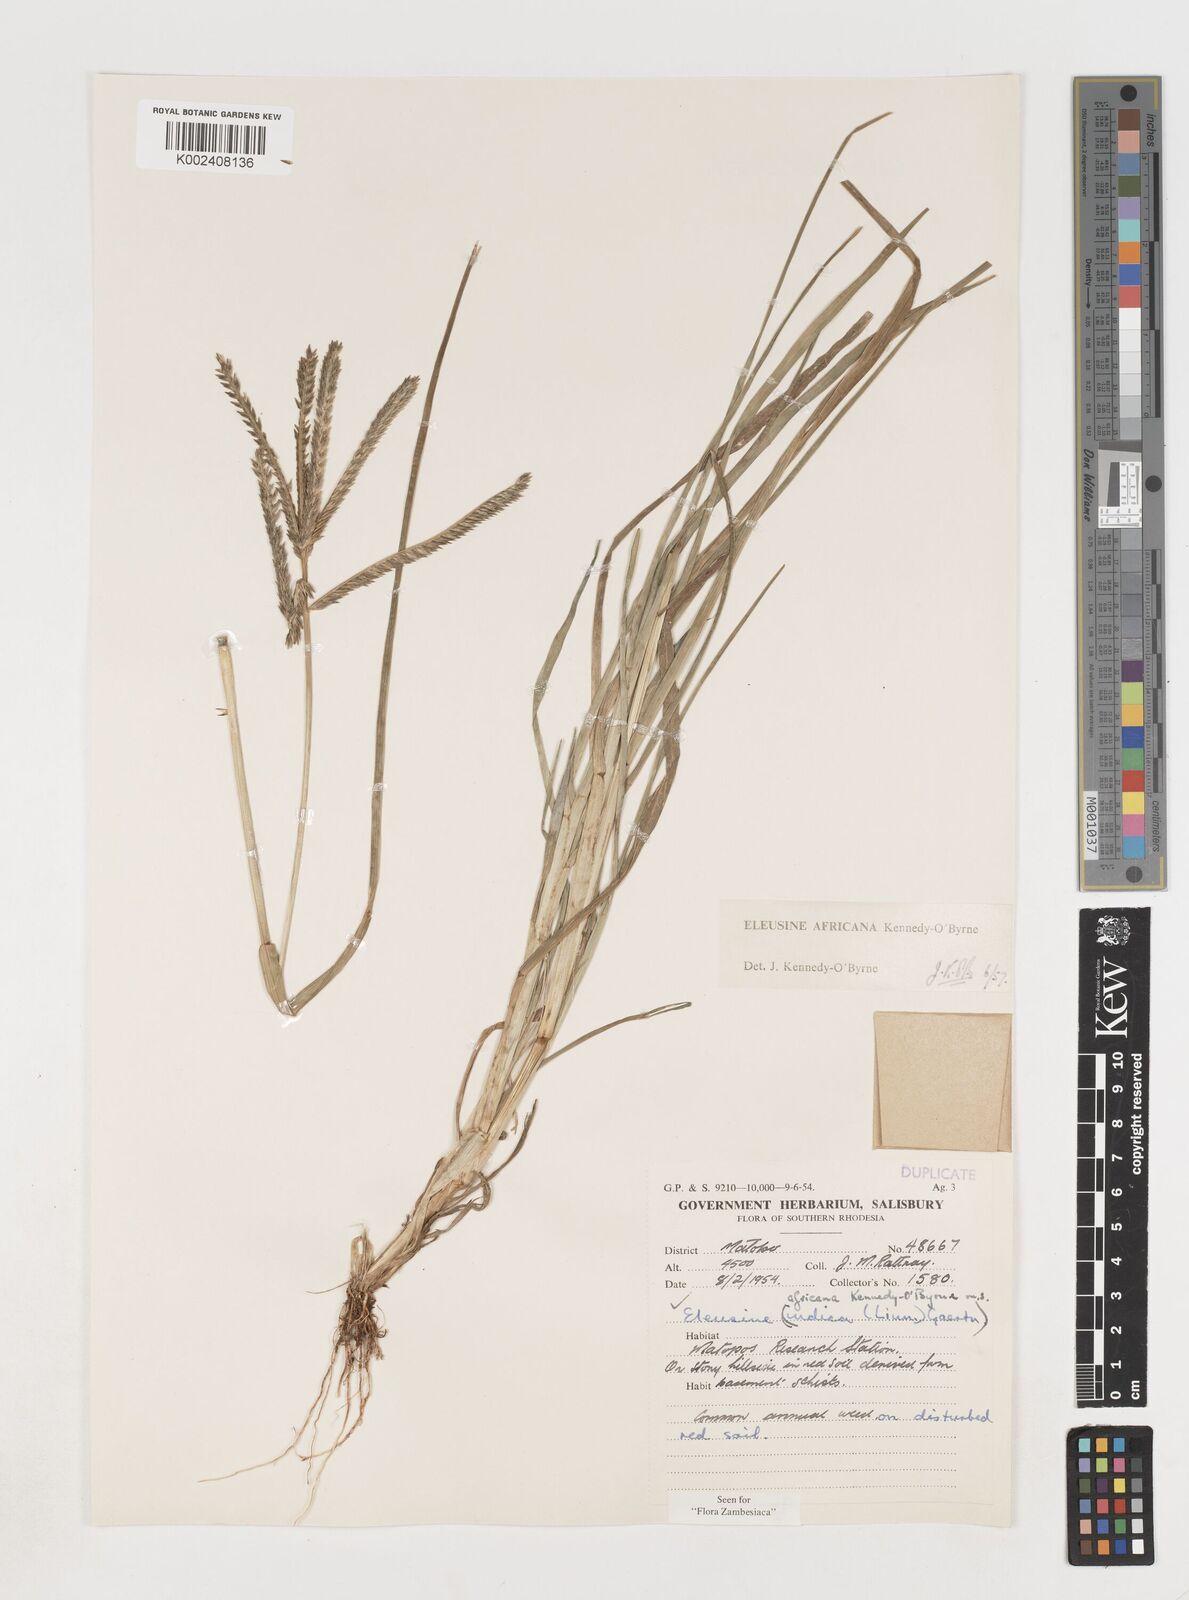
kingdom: Plantae
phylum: Tracheophyta
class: Liliopsida
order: Poales
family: Poaceae
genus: Eleusine
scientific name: Eleusine africana
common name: Wild african finger millet
